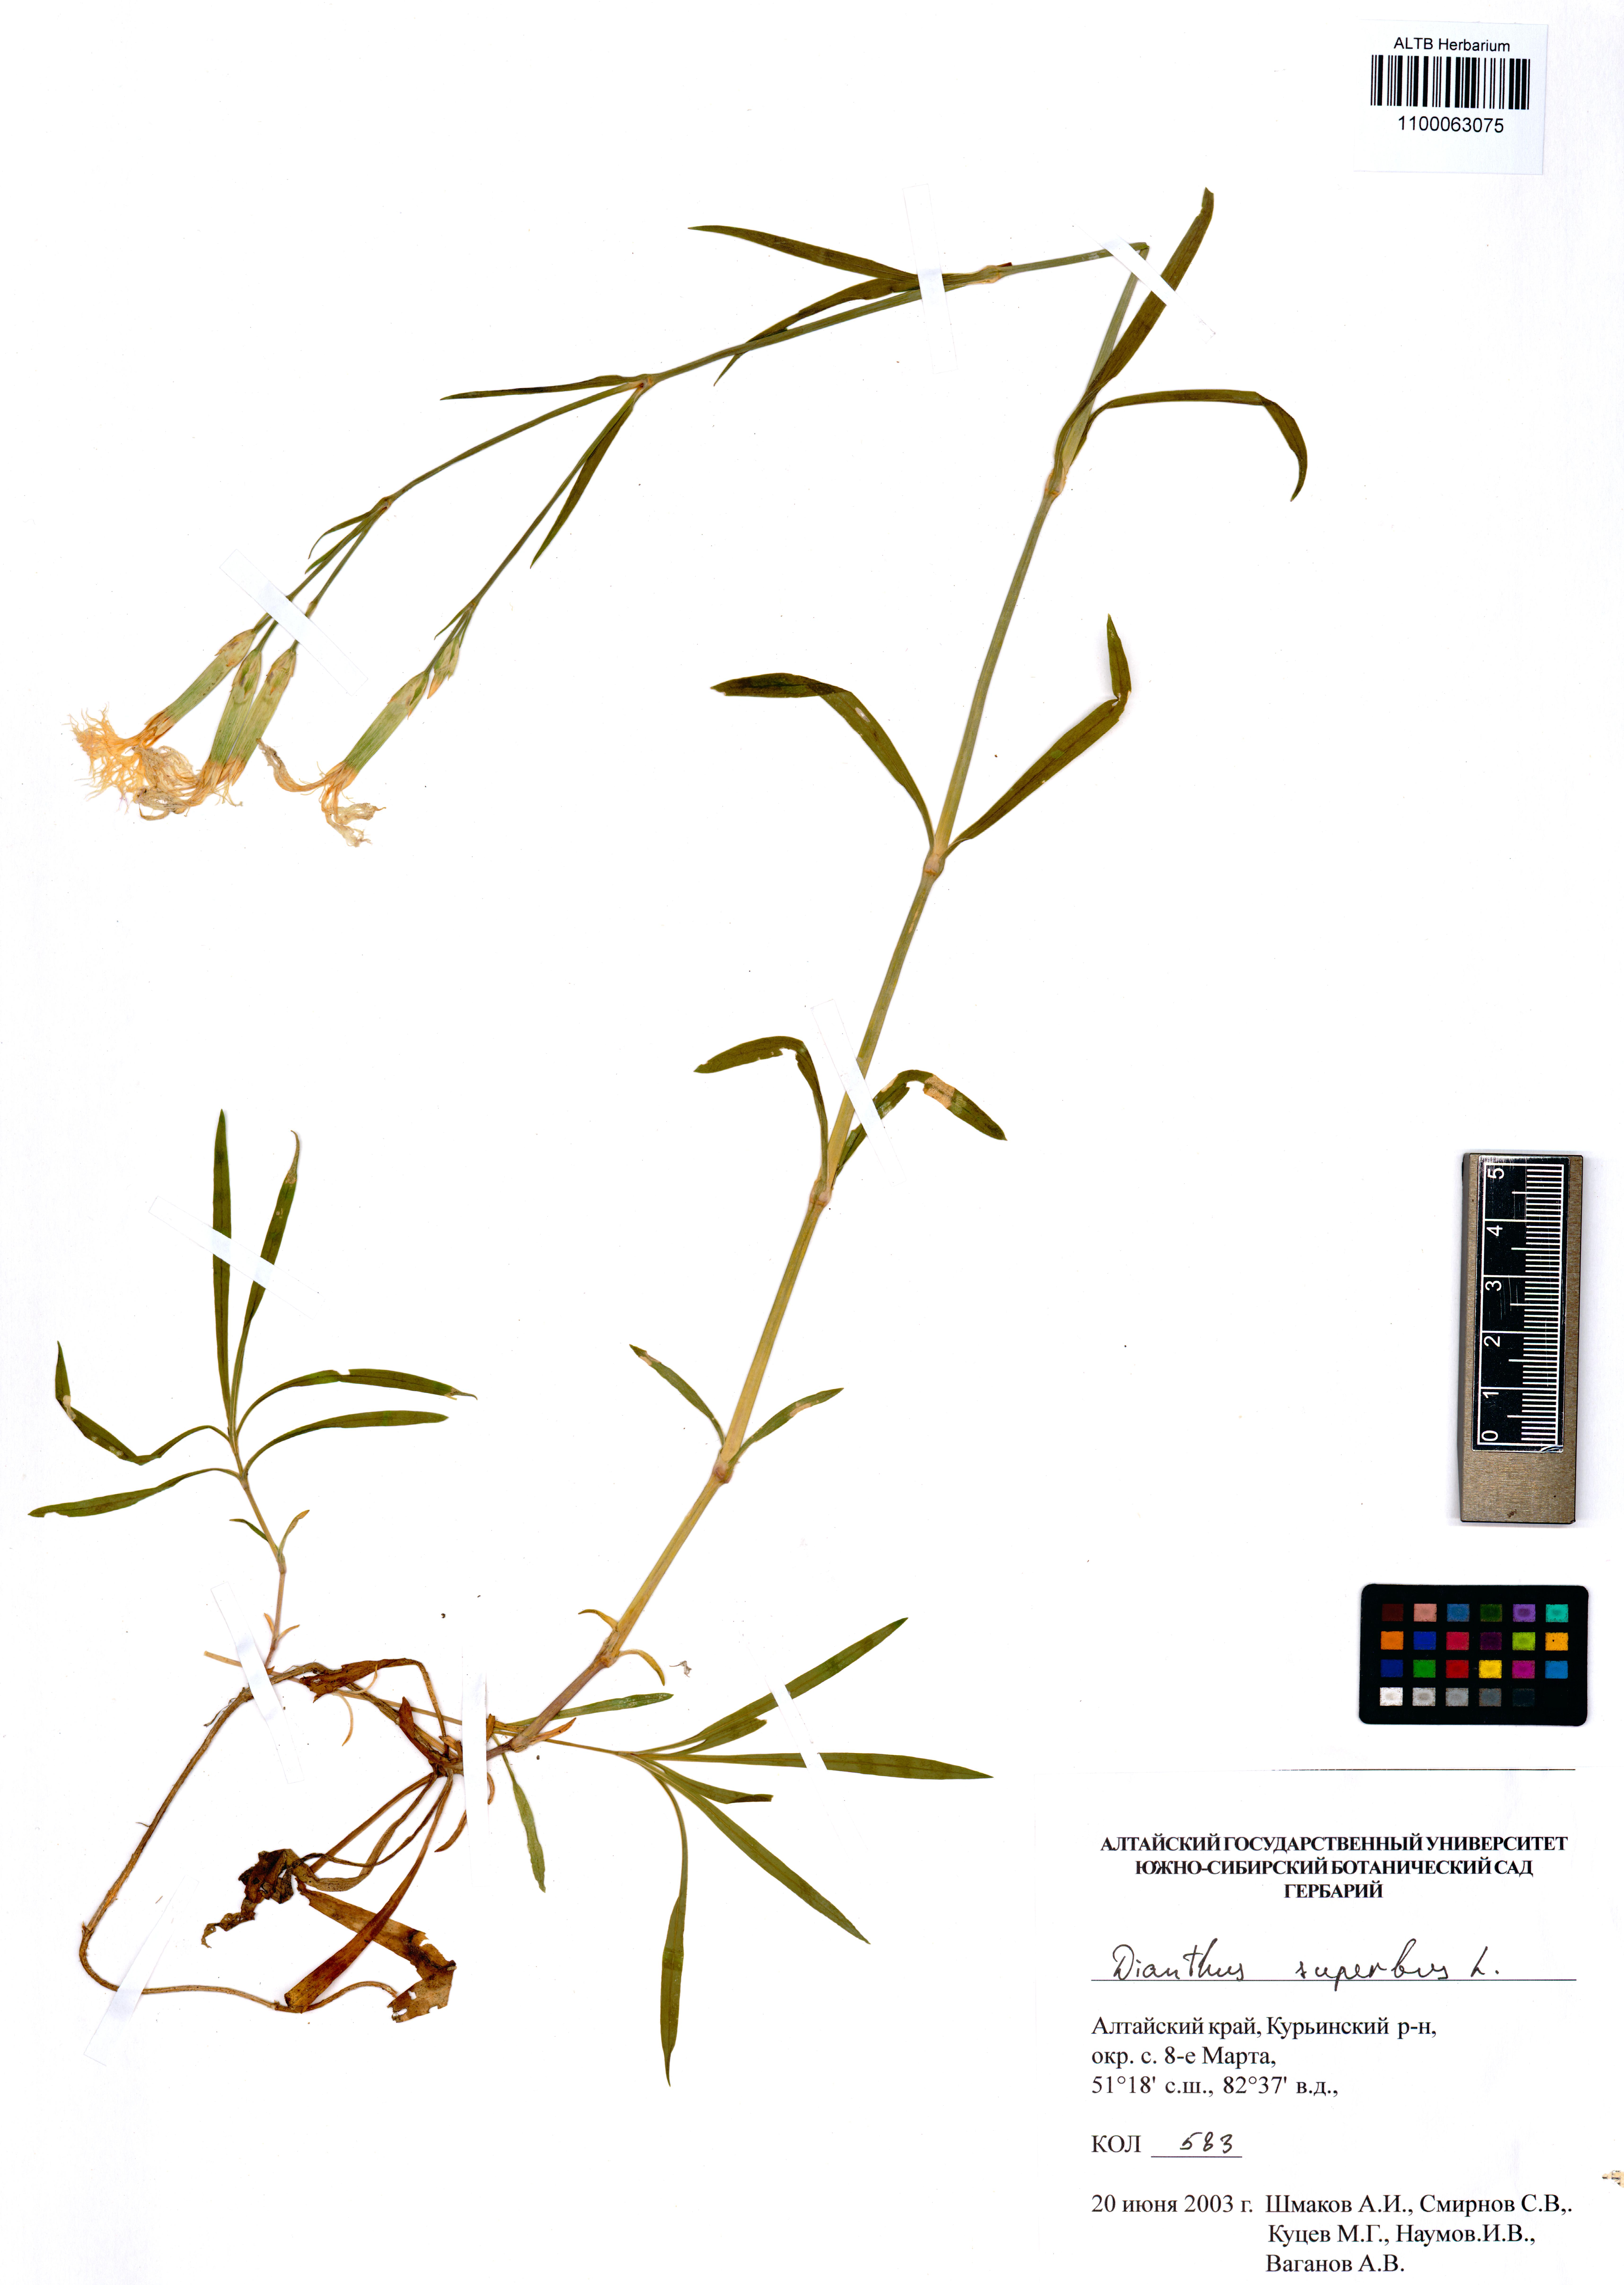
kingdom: Plantae
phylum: Tracheophyta
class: Magnoliopsida
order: Caryophyllales
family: Caryophyllaceae
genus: Dianthus
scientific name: Dianthus superbus
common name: Fringed pink
